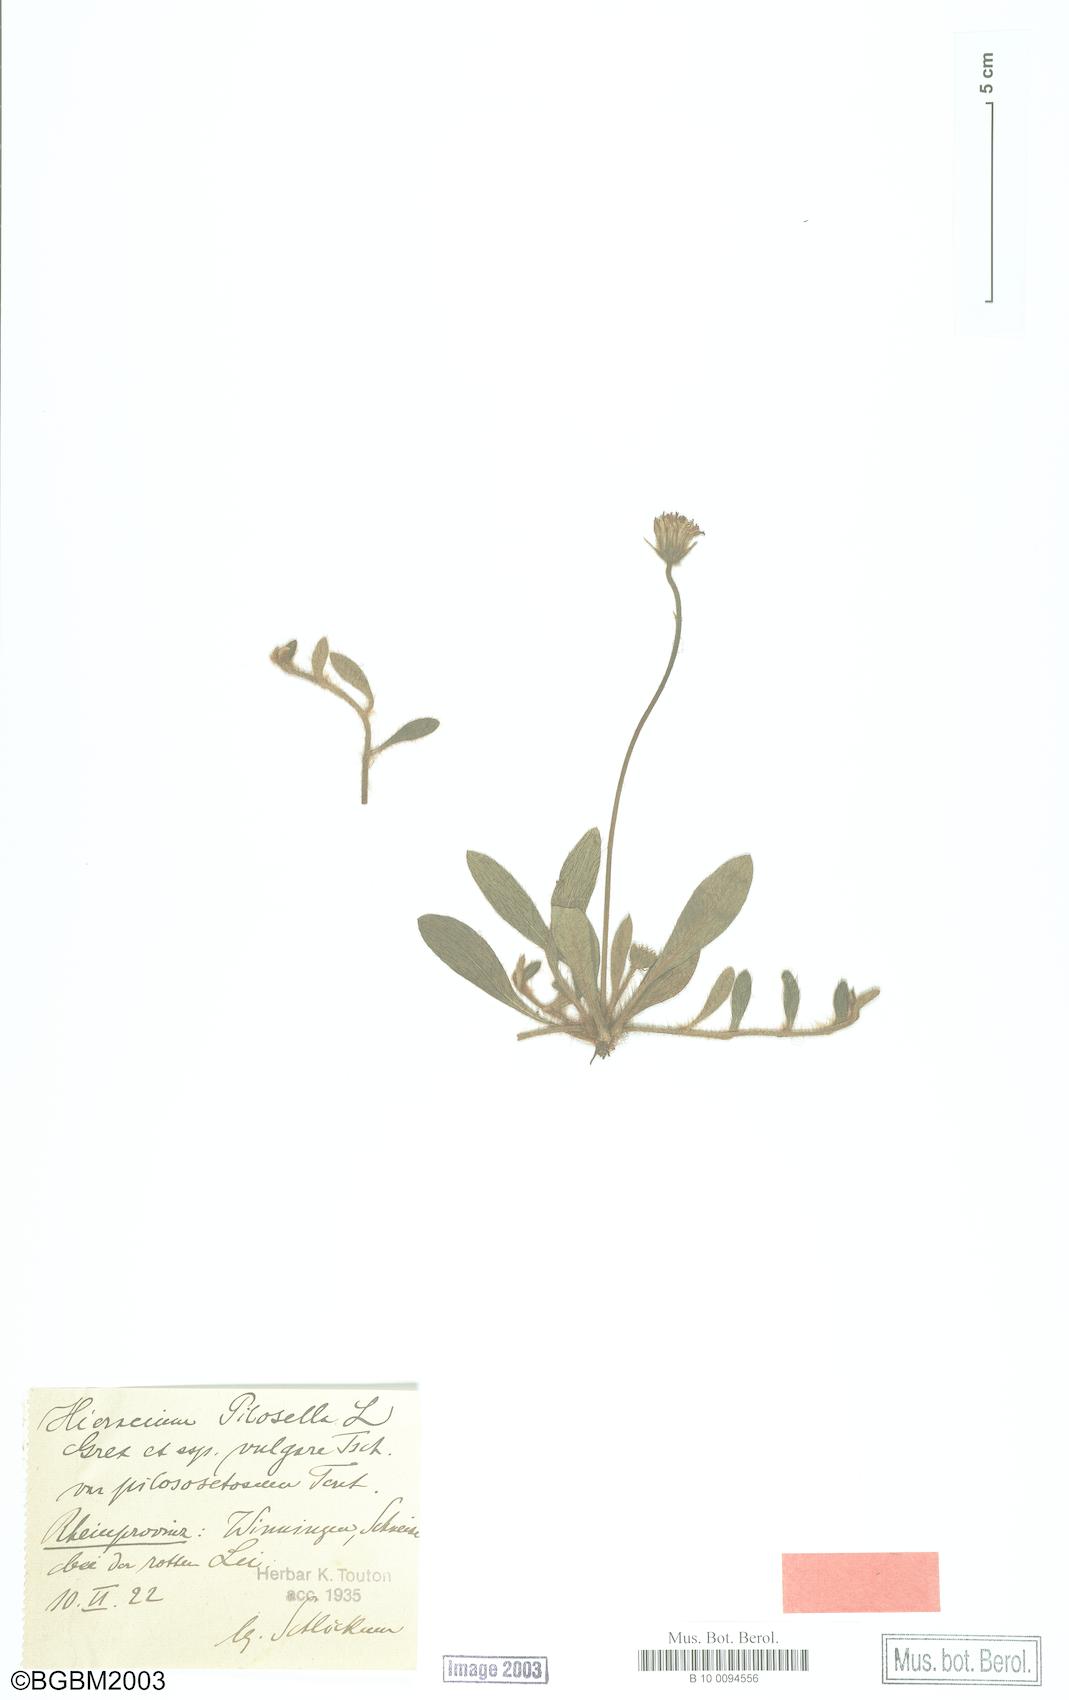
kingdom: Plantae
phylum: Tracheophyta
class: Magnoliopsida
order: Asterales
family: Asteraceae
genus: Pilosella
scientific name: Pilosella officinarum
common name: Mouse-ear hawkweed
